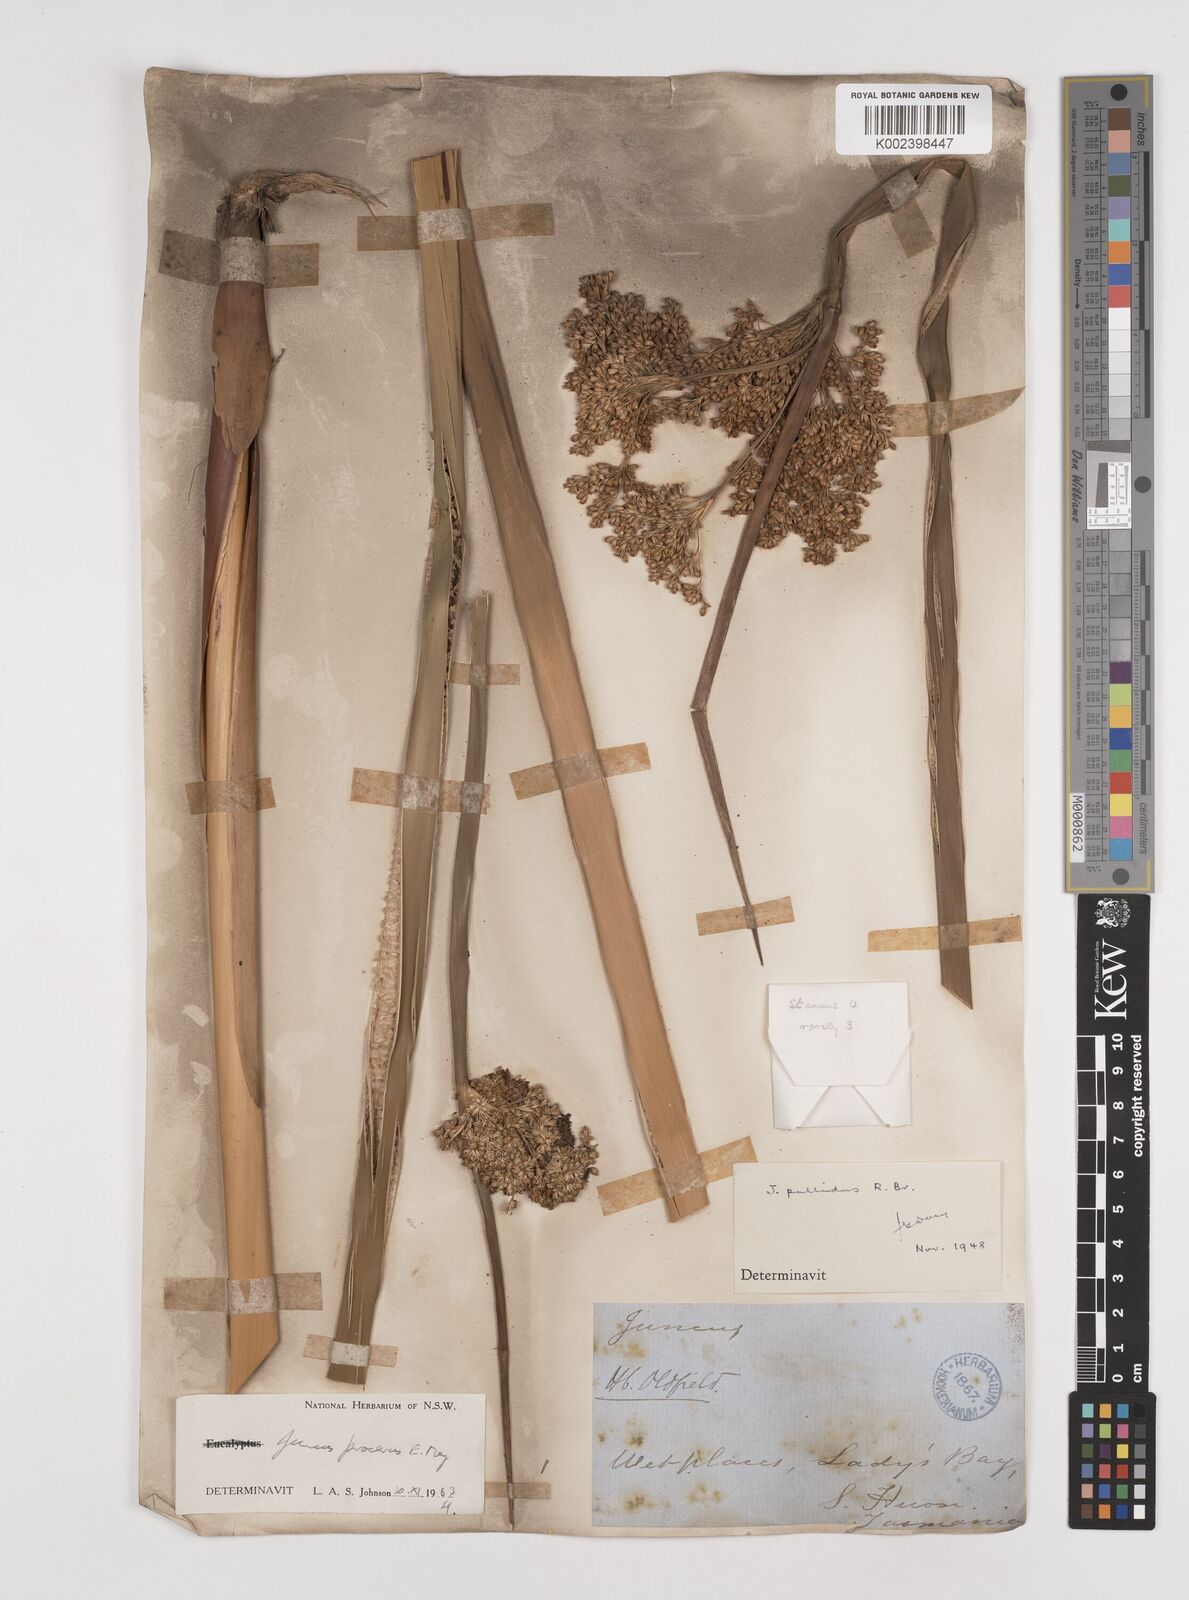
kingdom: Plantae
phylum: Tracheophyta
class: Liliopsida
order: Poales
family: Juncaceae
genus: Juncus
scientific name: Juncus procerus
